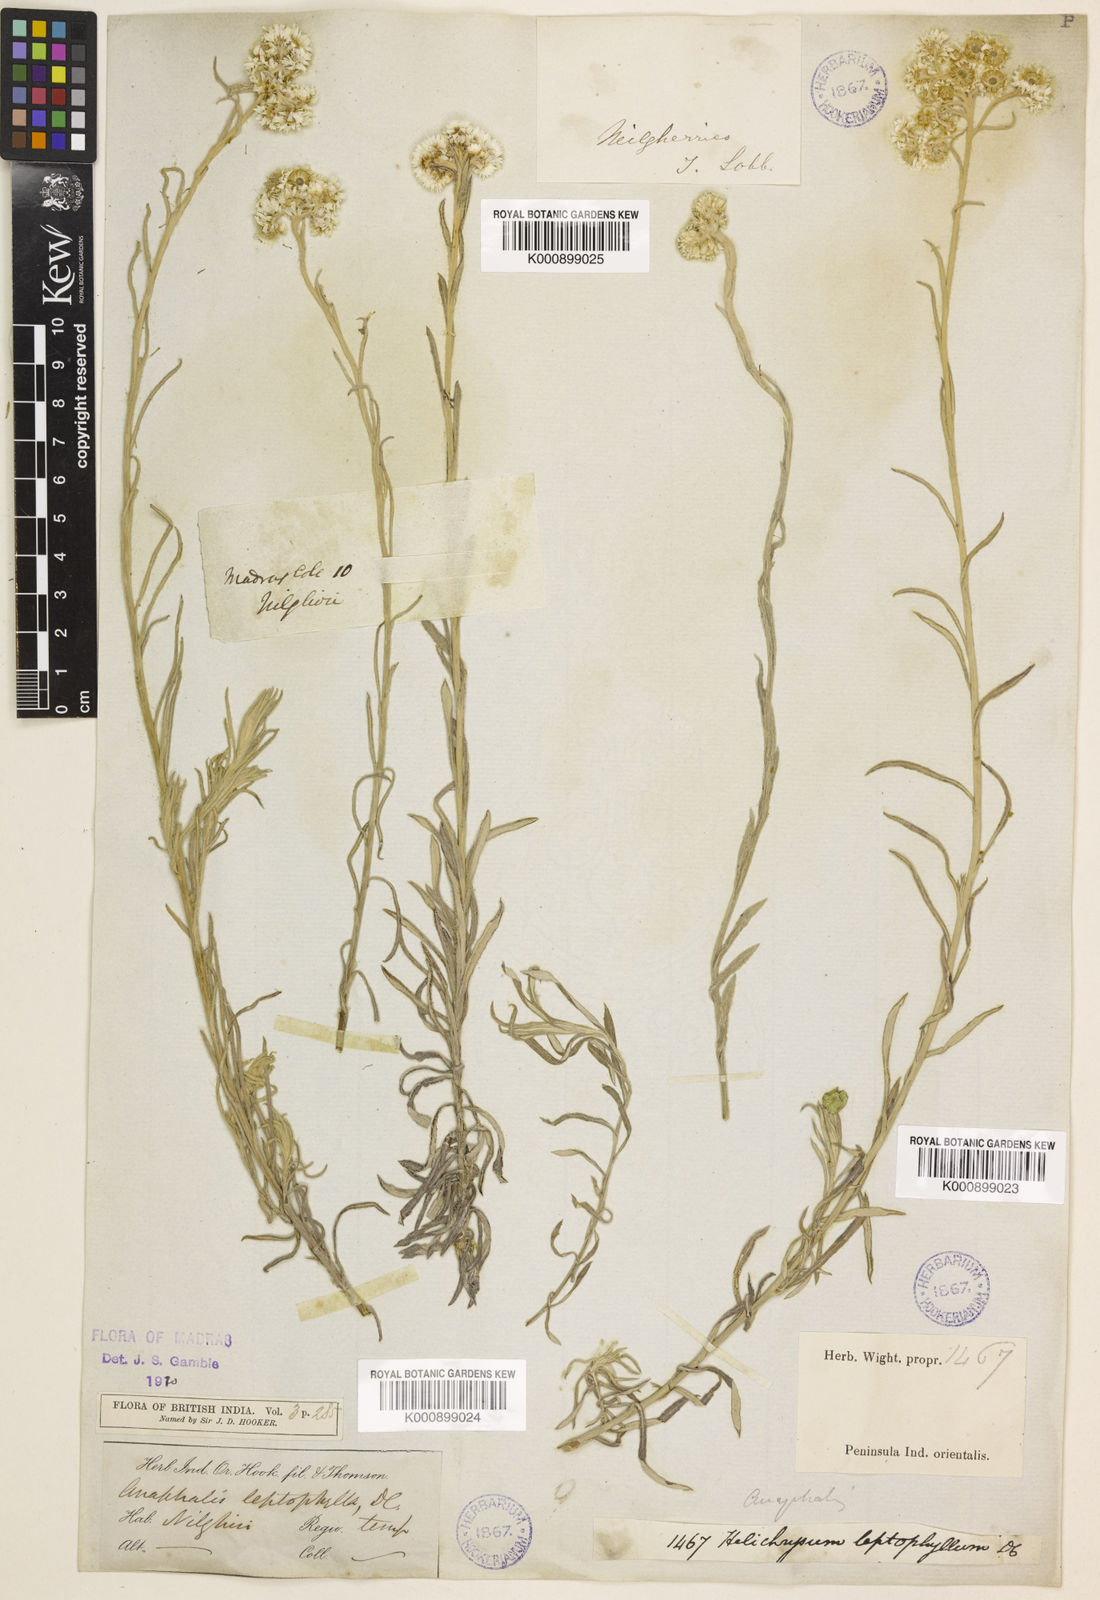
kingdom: Plantae
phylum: Tracheophyta
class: Magnoliopsida
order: Asterales
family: Asteraceae
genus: Anaphalis
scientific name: Anaphalis leptophylla
